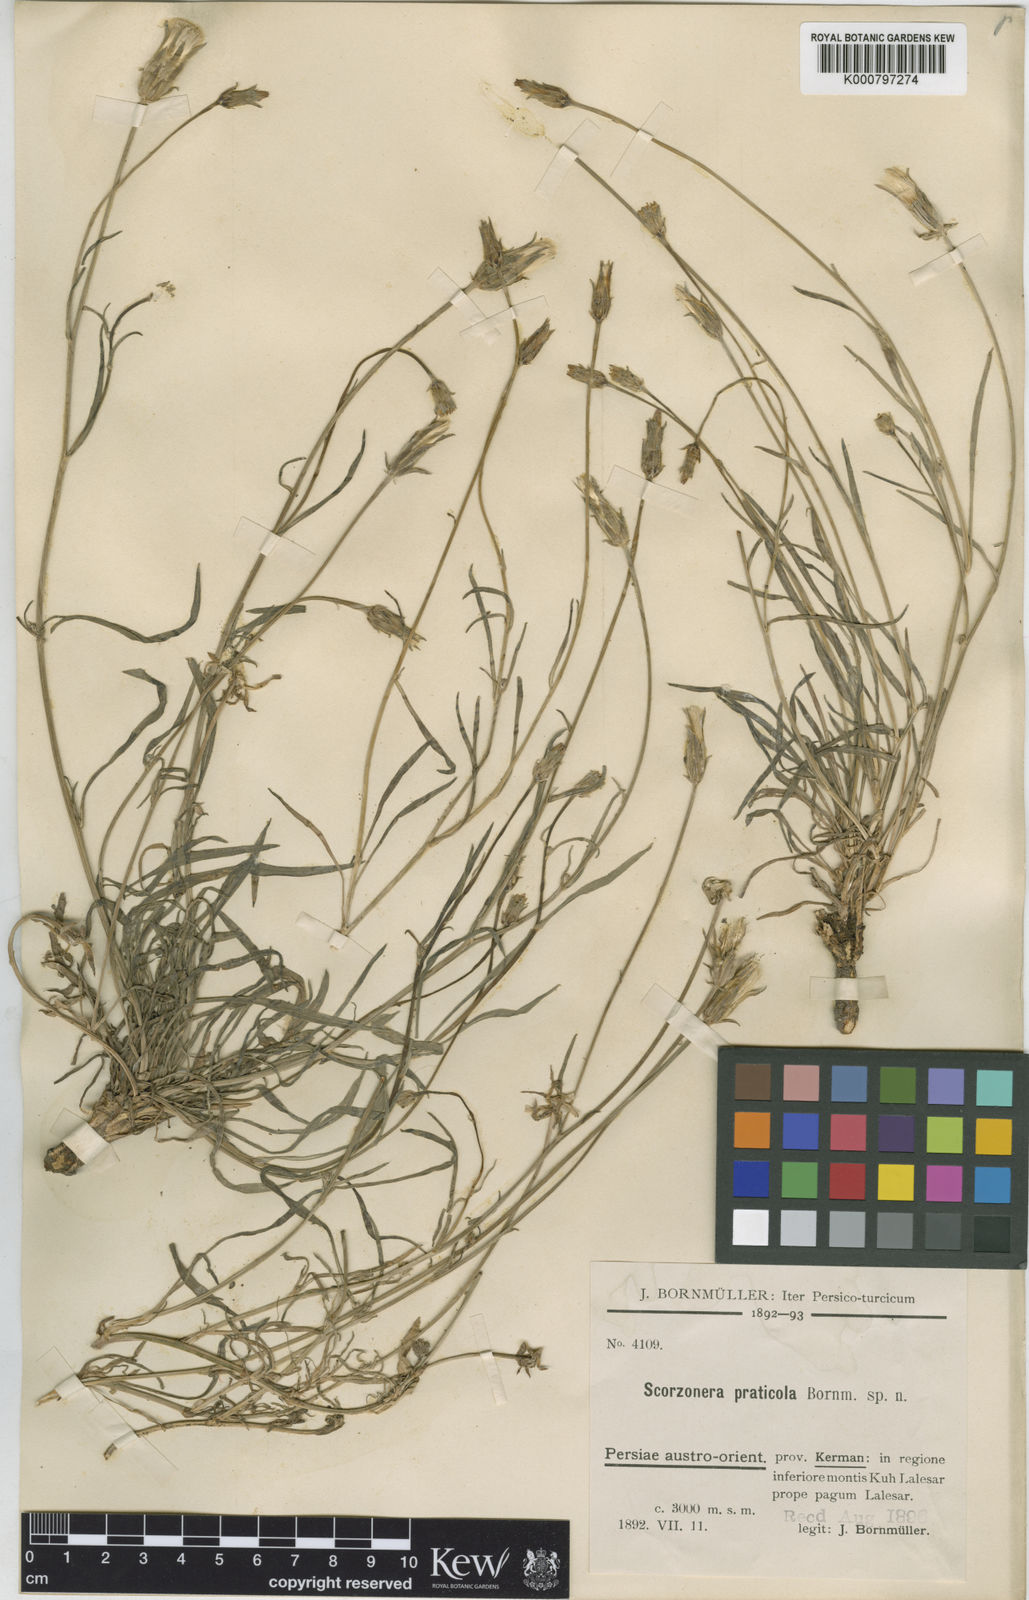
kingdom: Plantae
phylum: Tracheophyta
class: Magnoliopsida
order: Asterales
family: Asteraceae
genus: Scorzonera
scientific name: Scorzonera
